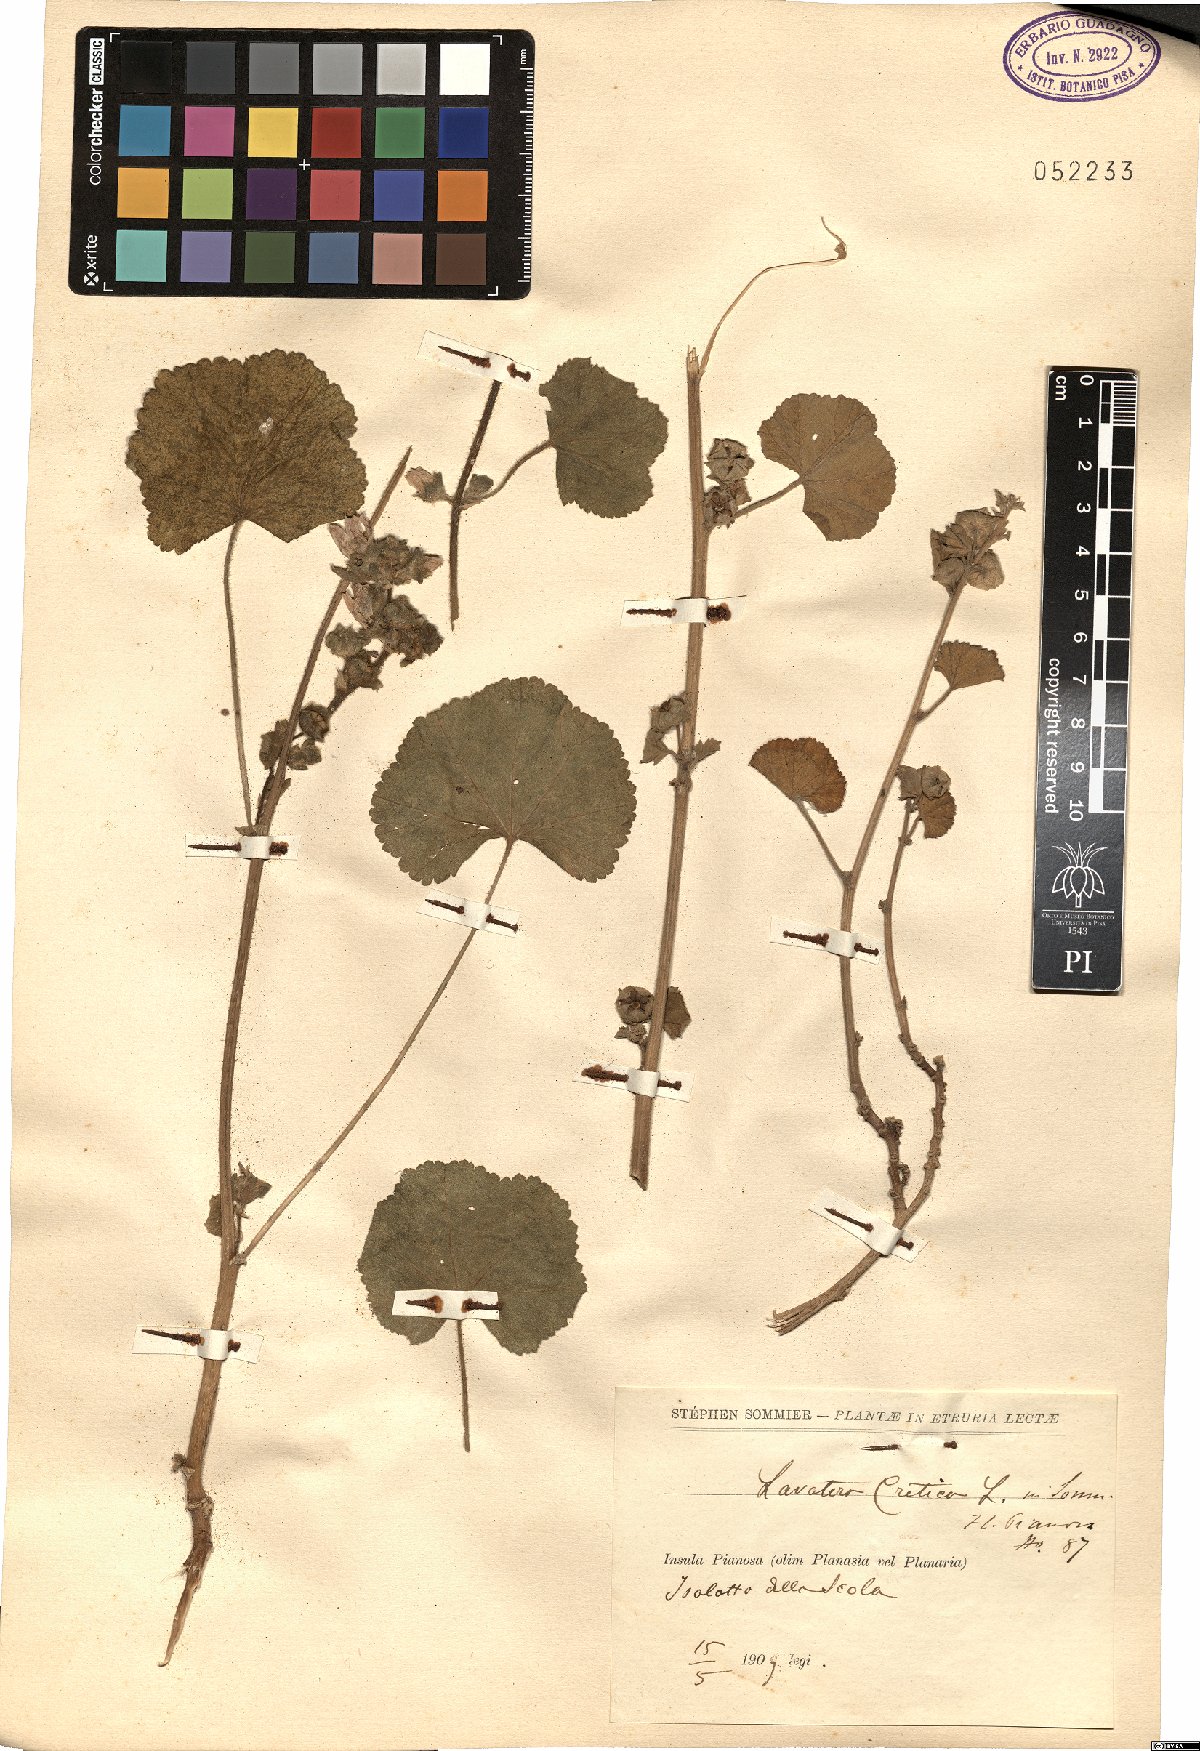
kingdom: Plantae
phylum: Tracheophyta
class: Magnoliopsida
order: Malvales
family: Malvaceae
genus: Malva
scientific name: Malva multiflora
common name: Cheeseweed
